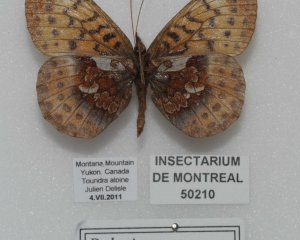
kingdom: Animalia
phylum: Arthropoda
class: Insecta
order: Lepidoptera
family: Nymphalidae
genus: Boloria
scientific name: Boloria frigga
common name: Frigga Fritillary
